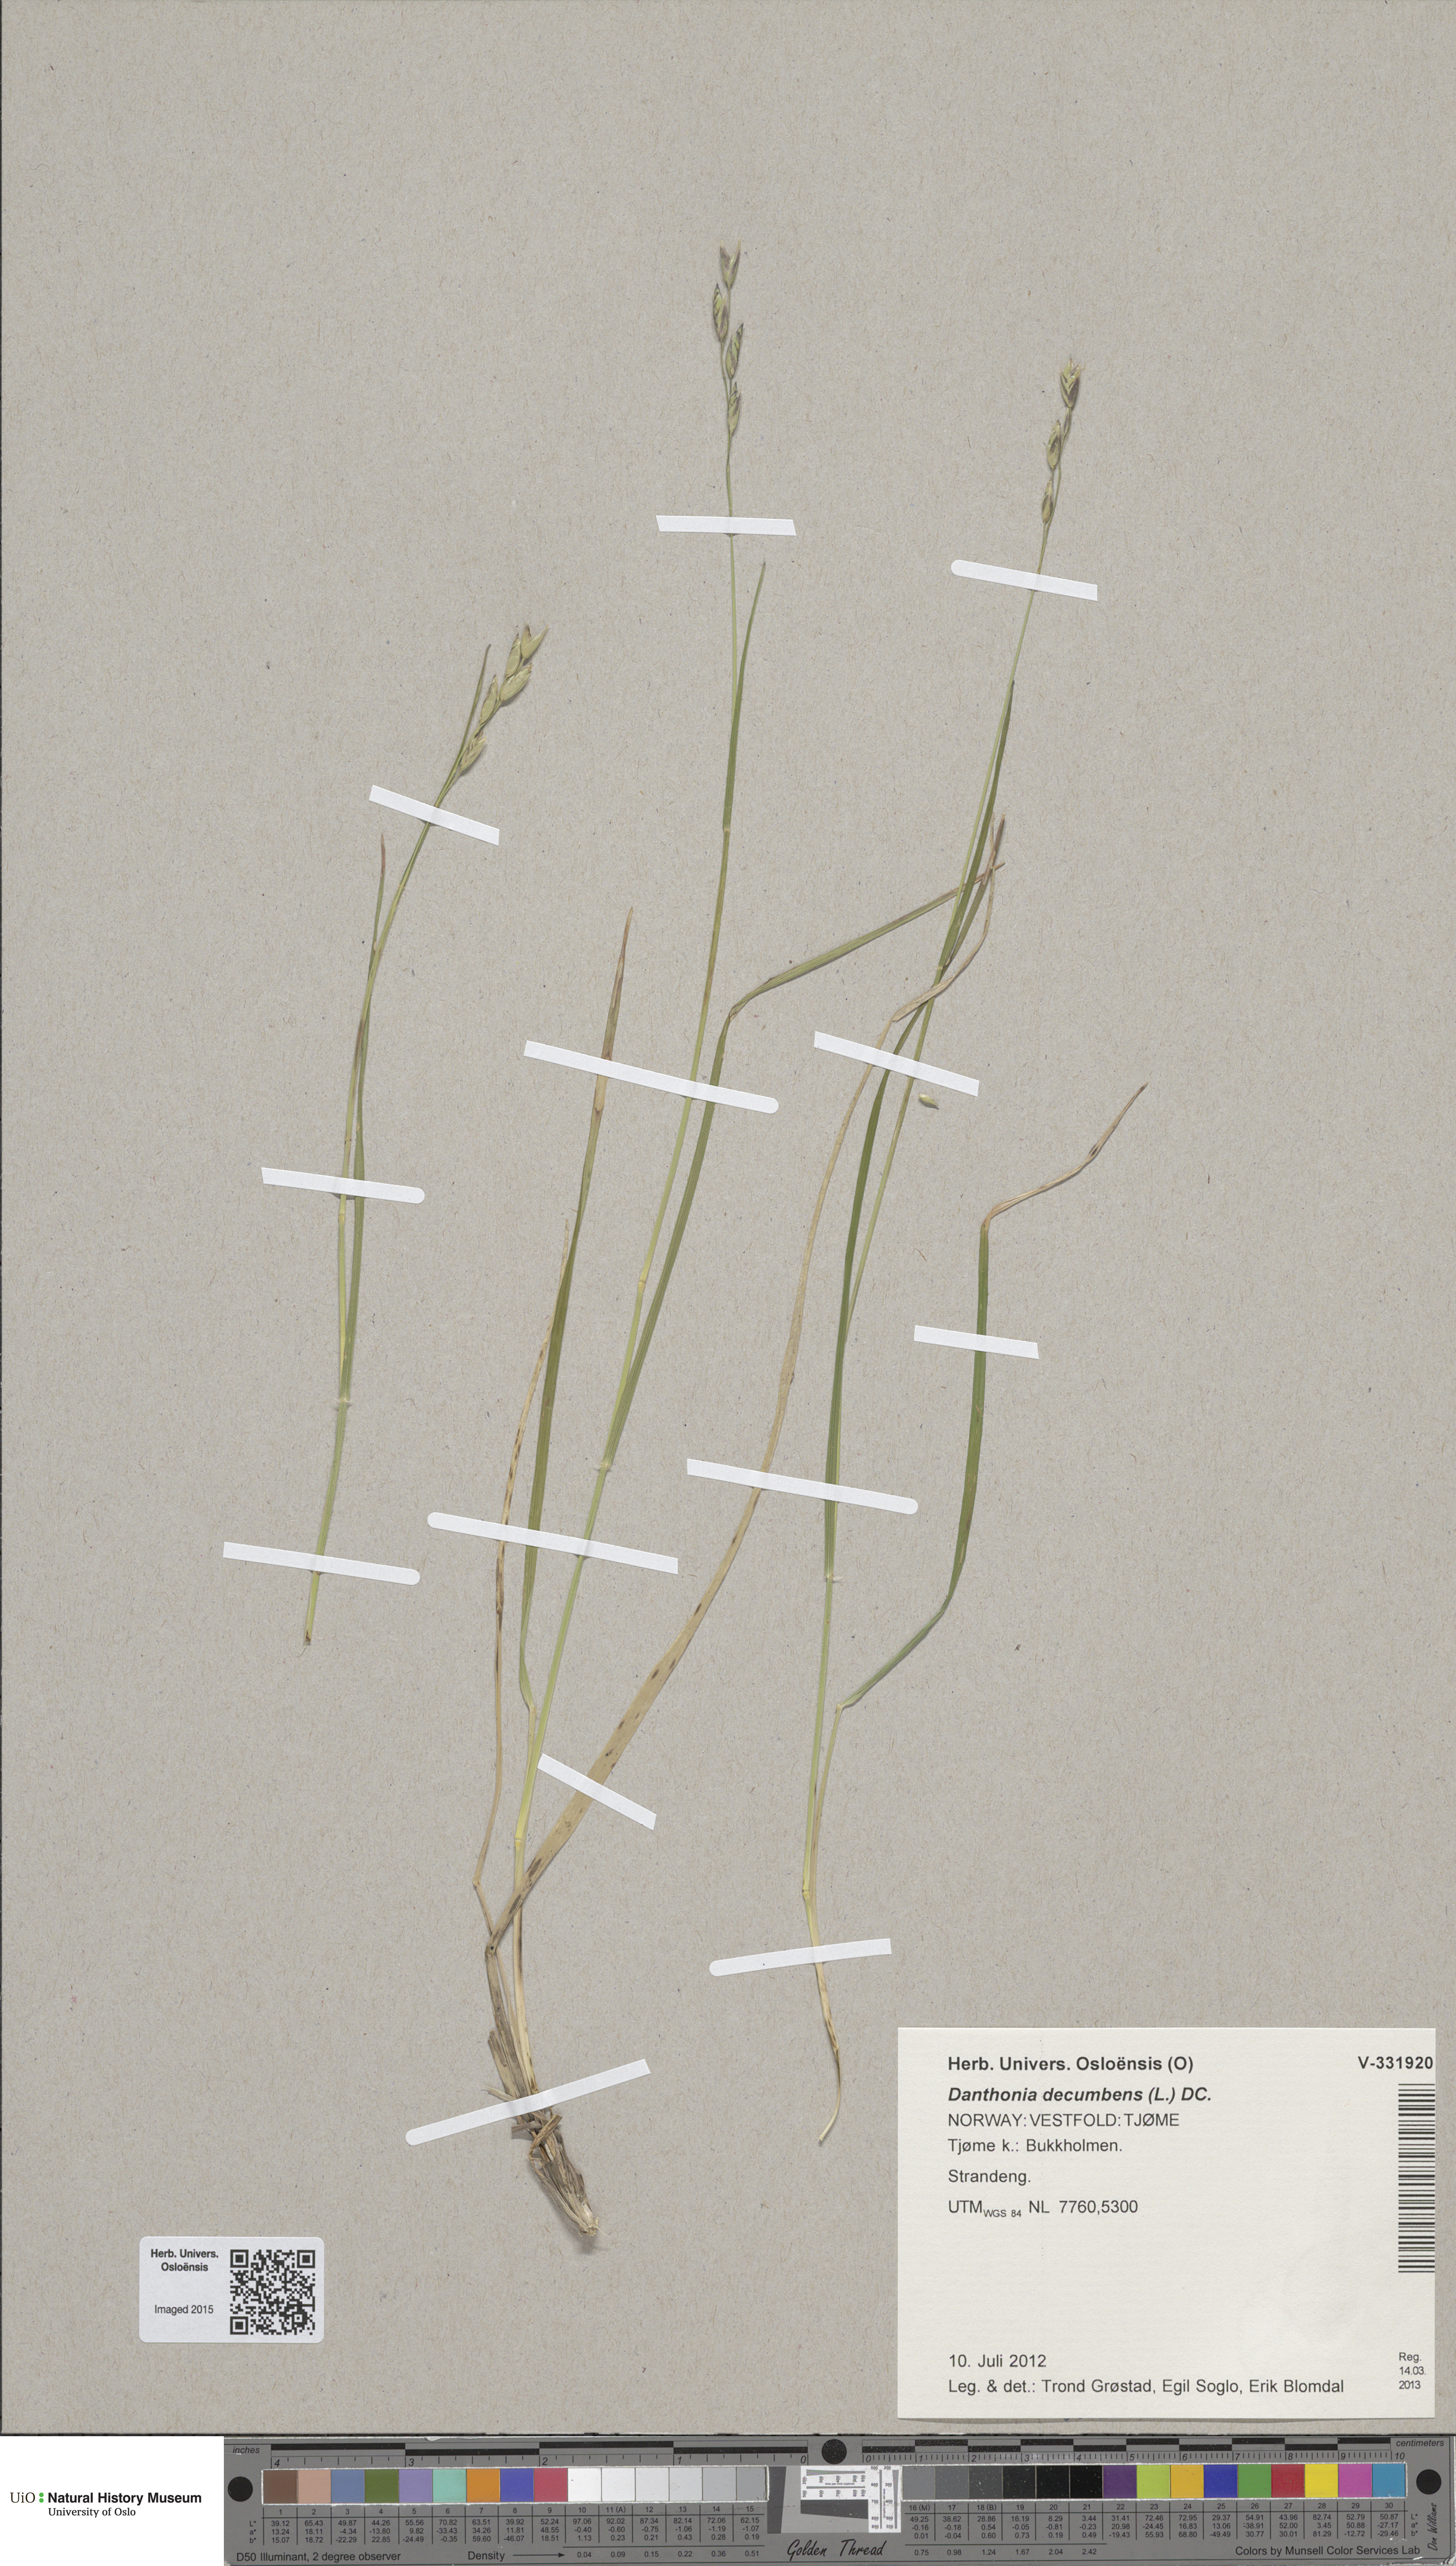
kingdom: Plantae
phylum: Tracheophyta
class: Liliopsida
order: Poales
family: Poaceae
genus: Danthonia
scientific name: Danthonia decumbens
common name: Common heathgrass
